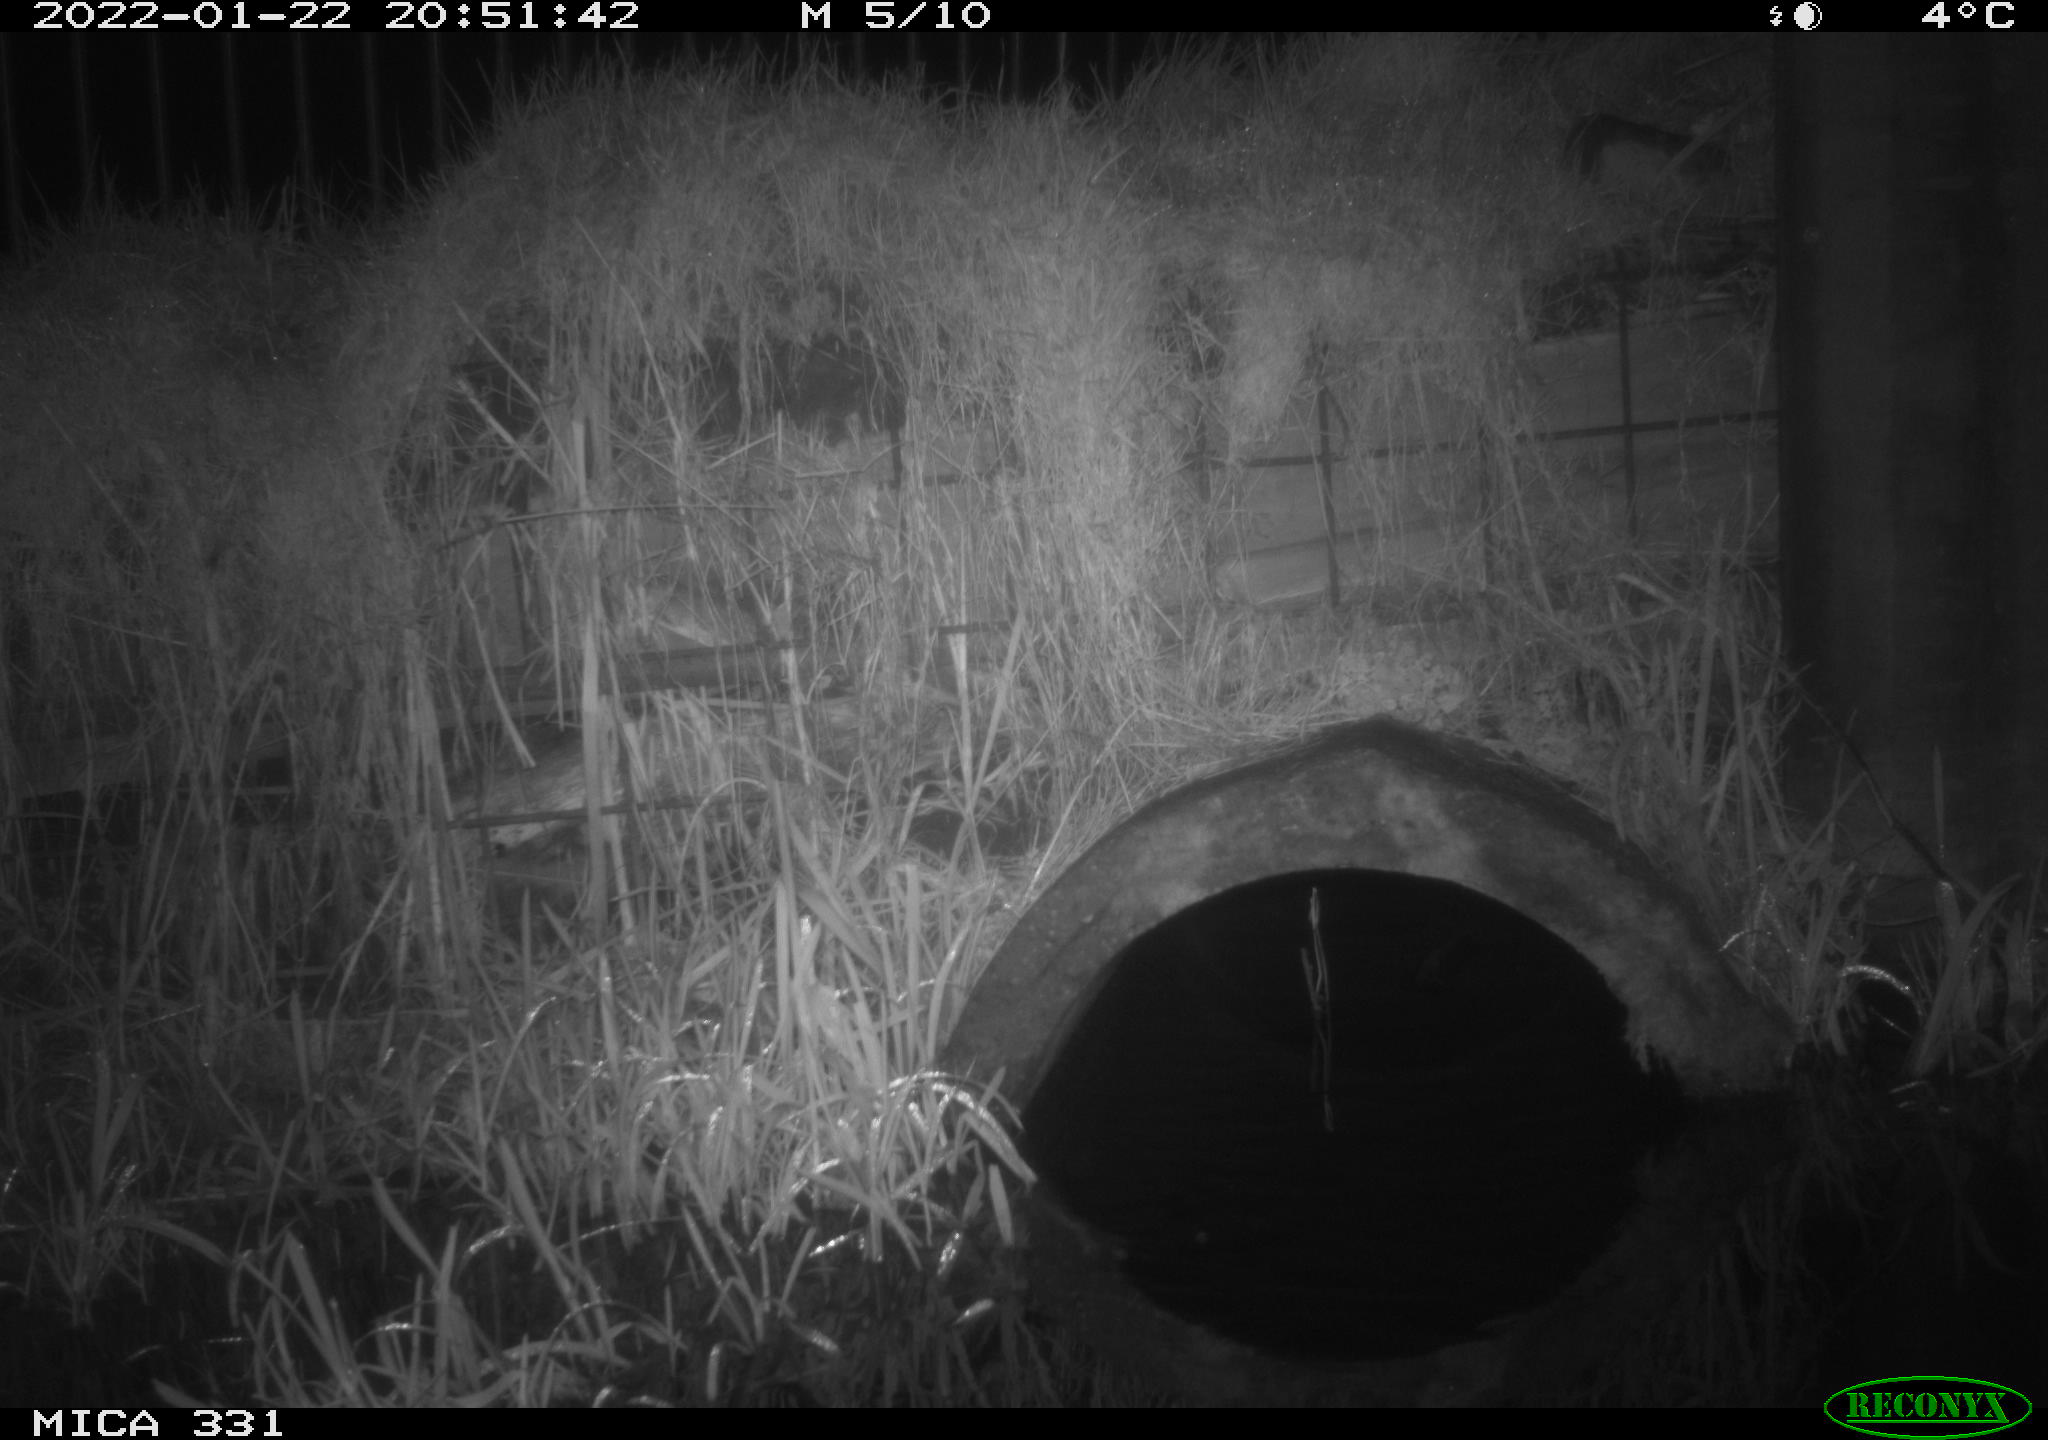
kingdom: Animalia
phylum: Chordata
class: Mammalia
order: Rodentia
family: Muridae
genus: Rattus
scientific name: Rattus norvegicus
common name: Brown rat
